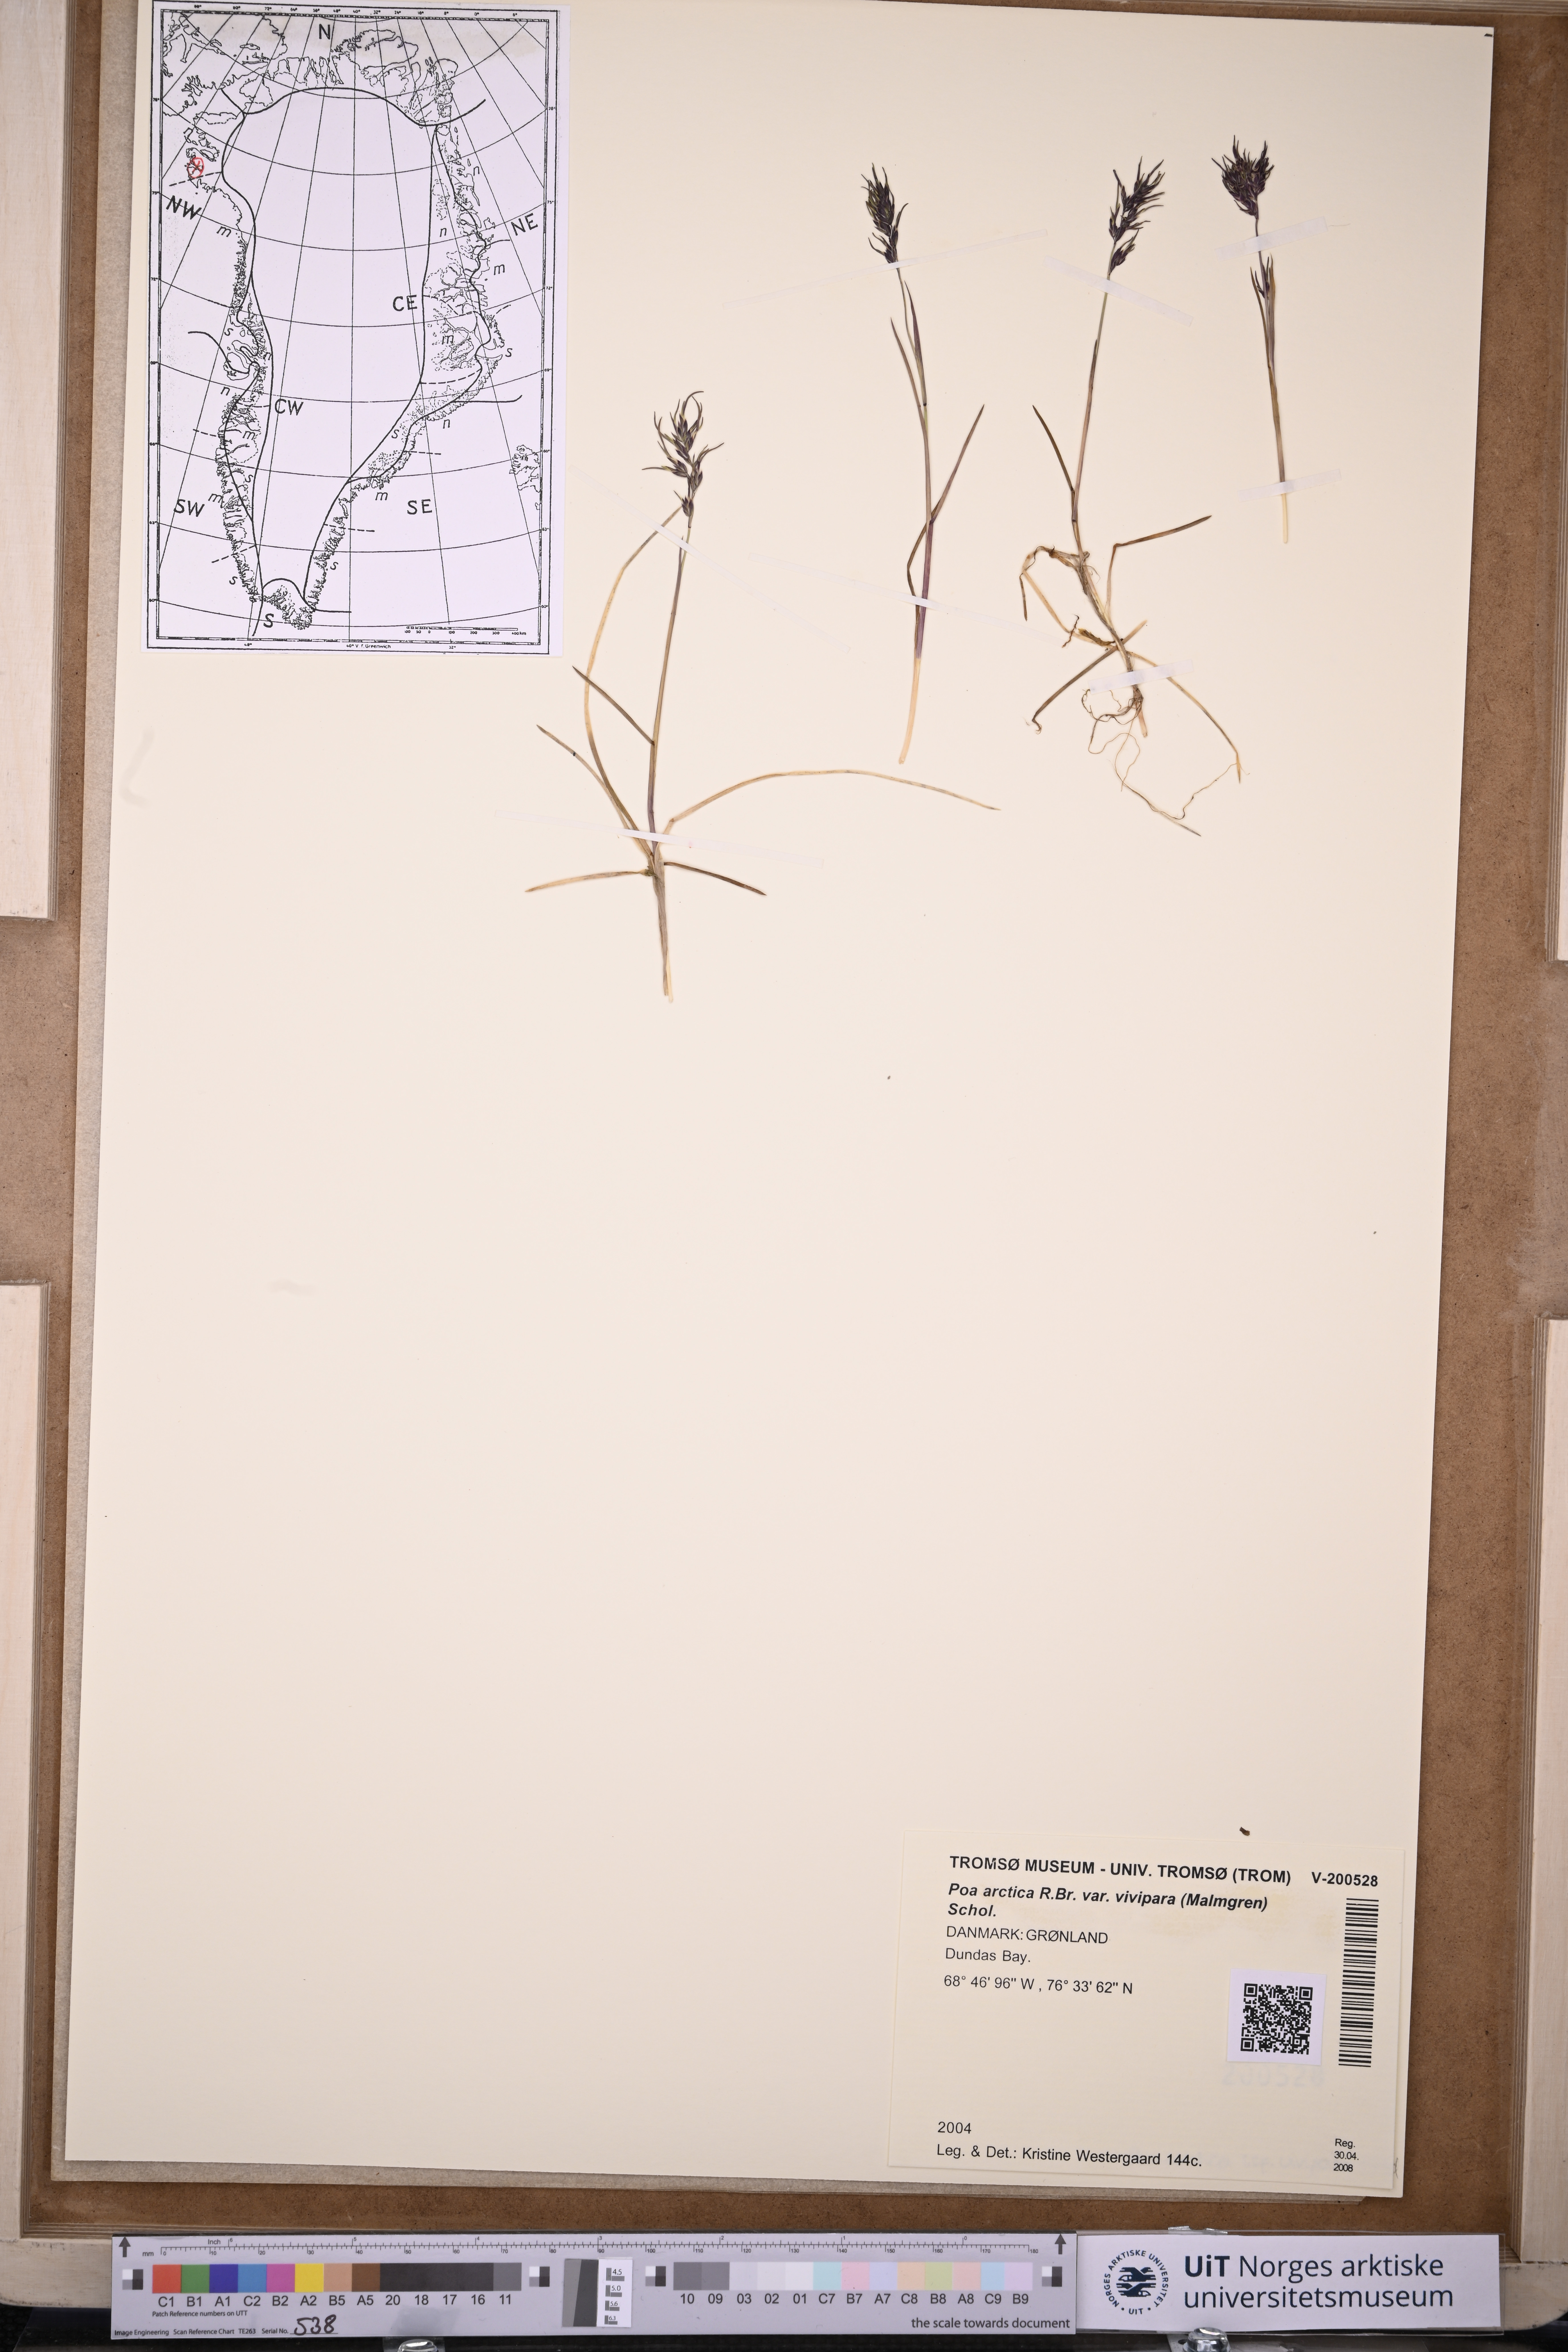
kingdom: Plantae
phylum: Tracheophyta
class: Liliopsida
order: Poales
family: Poaceae
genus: Poa
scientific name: Poa arctica
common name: Arctic bluegrass
